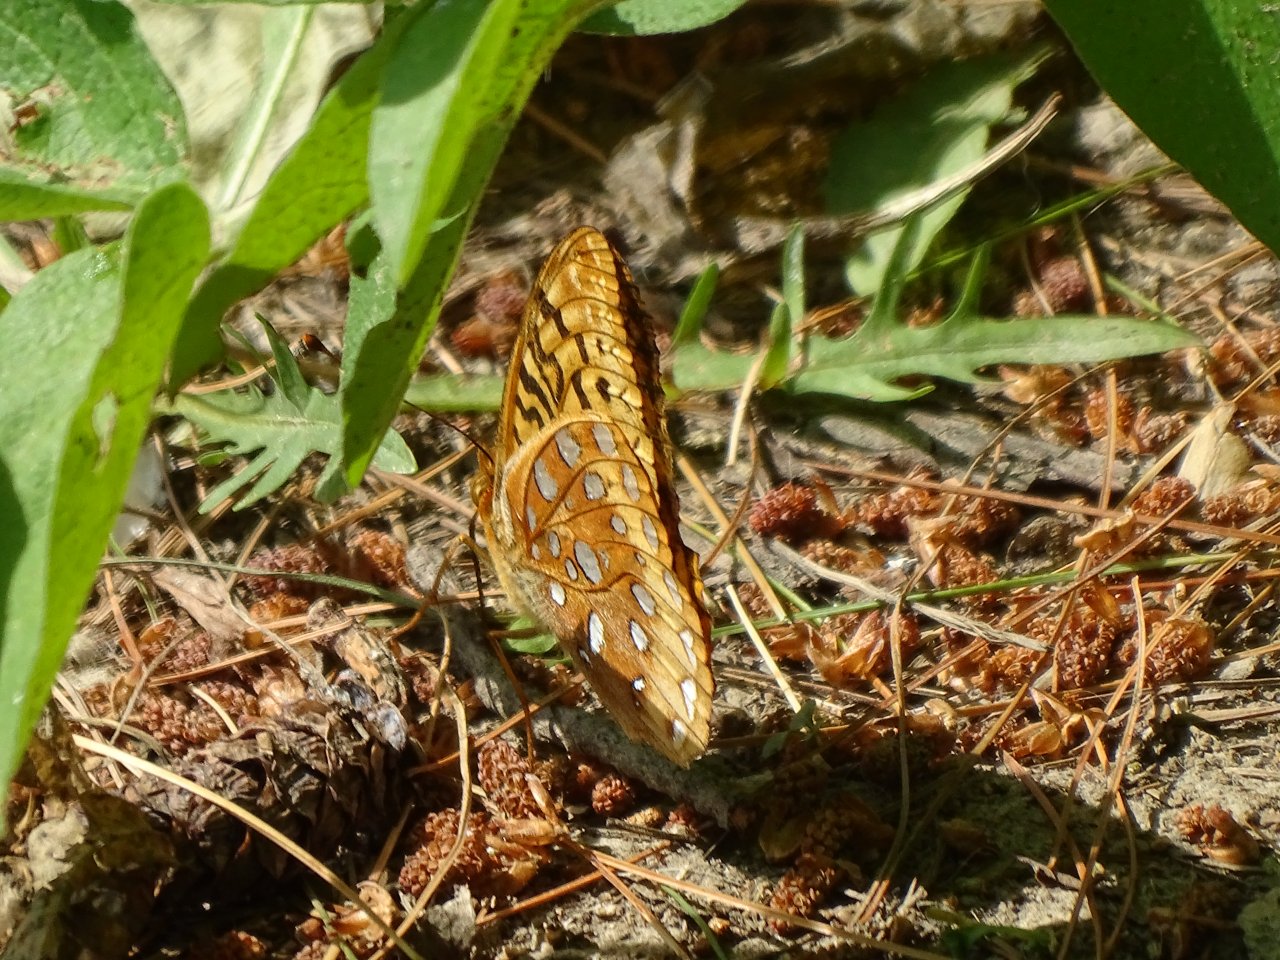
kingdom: Animalia
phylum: Arthropoda
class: Insecta
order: Lepidoptera
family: Nymphalidae
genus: Speyeria
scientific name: Speyeria cybele
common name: Great Spangled Fritillary
